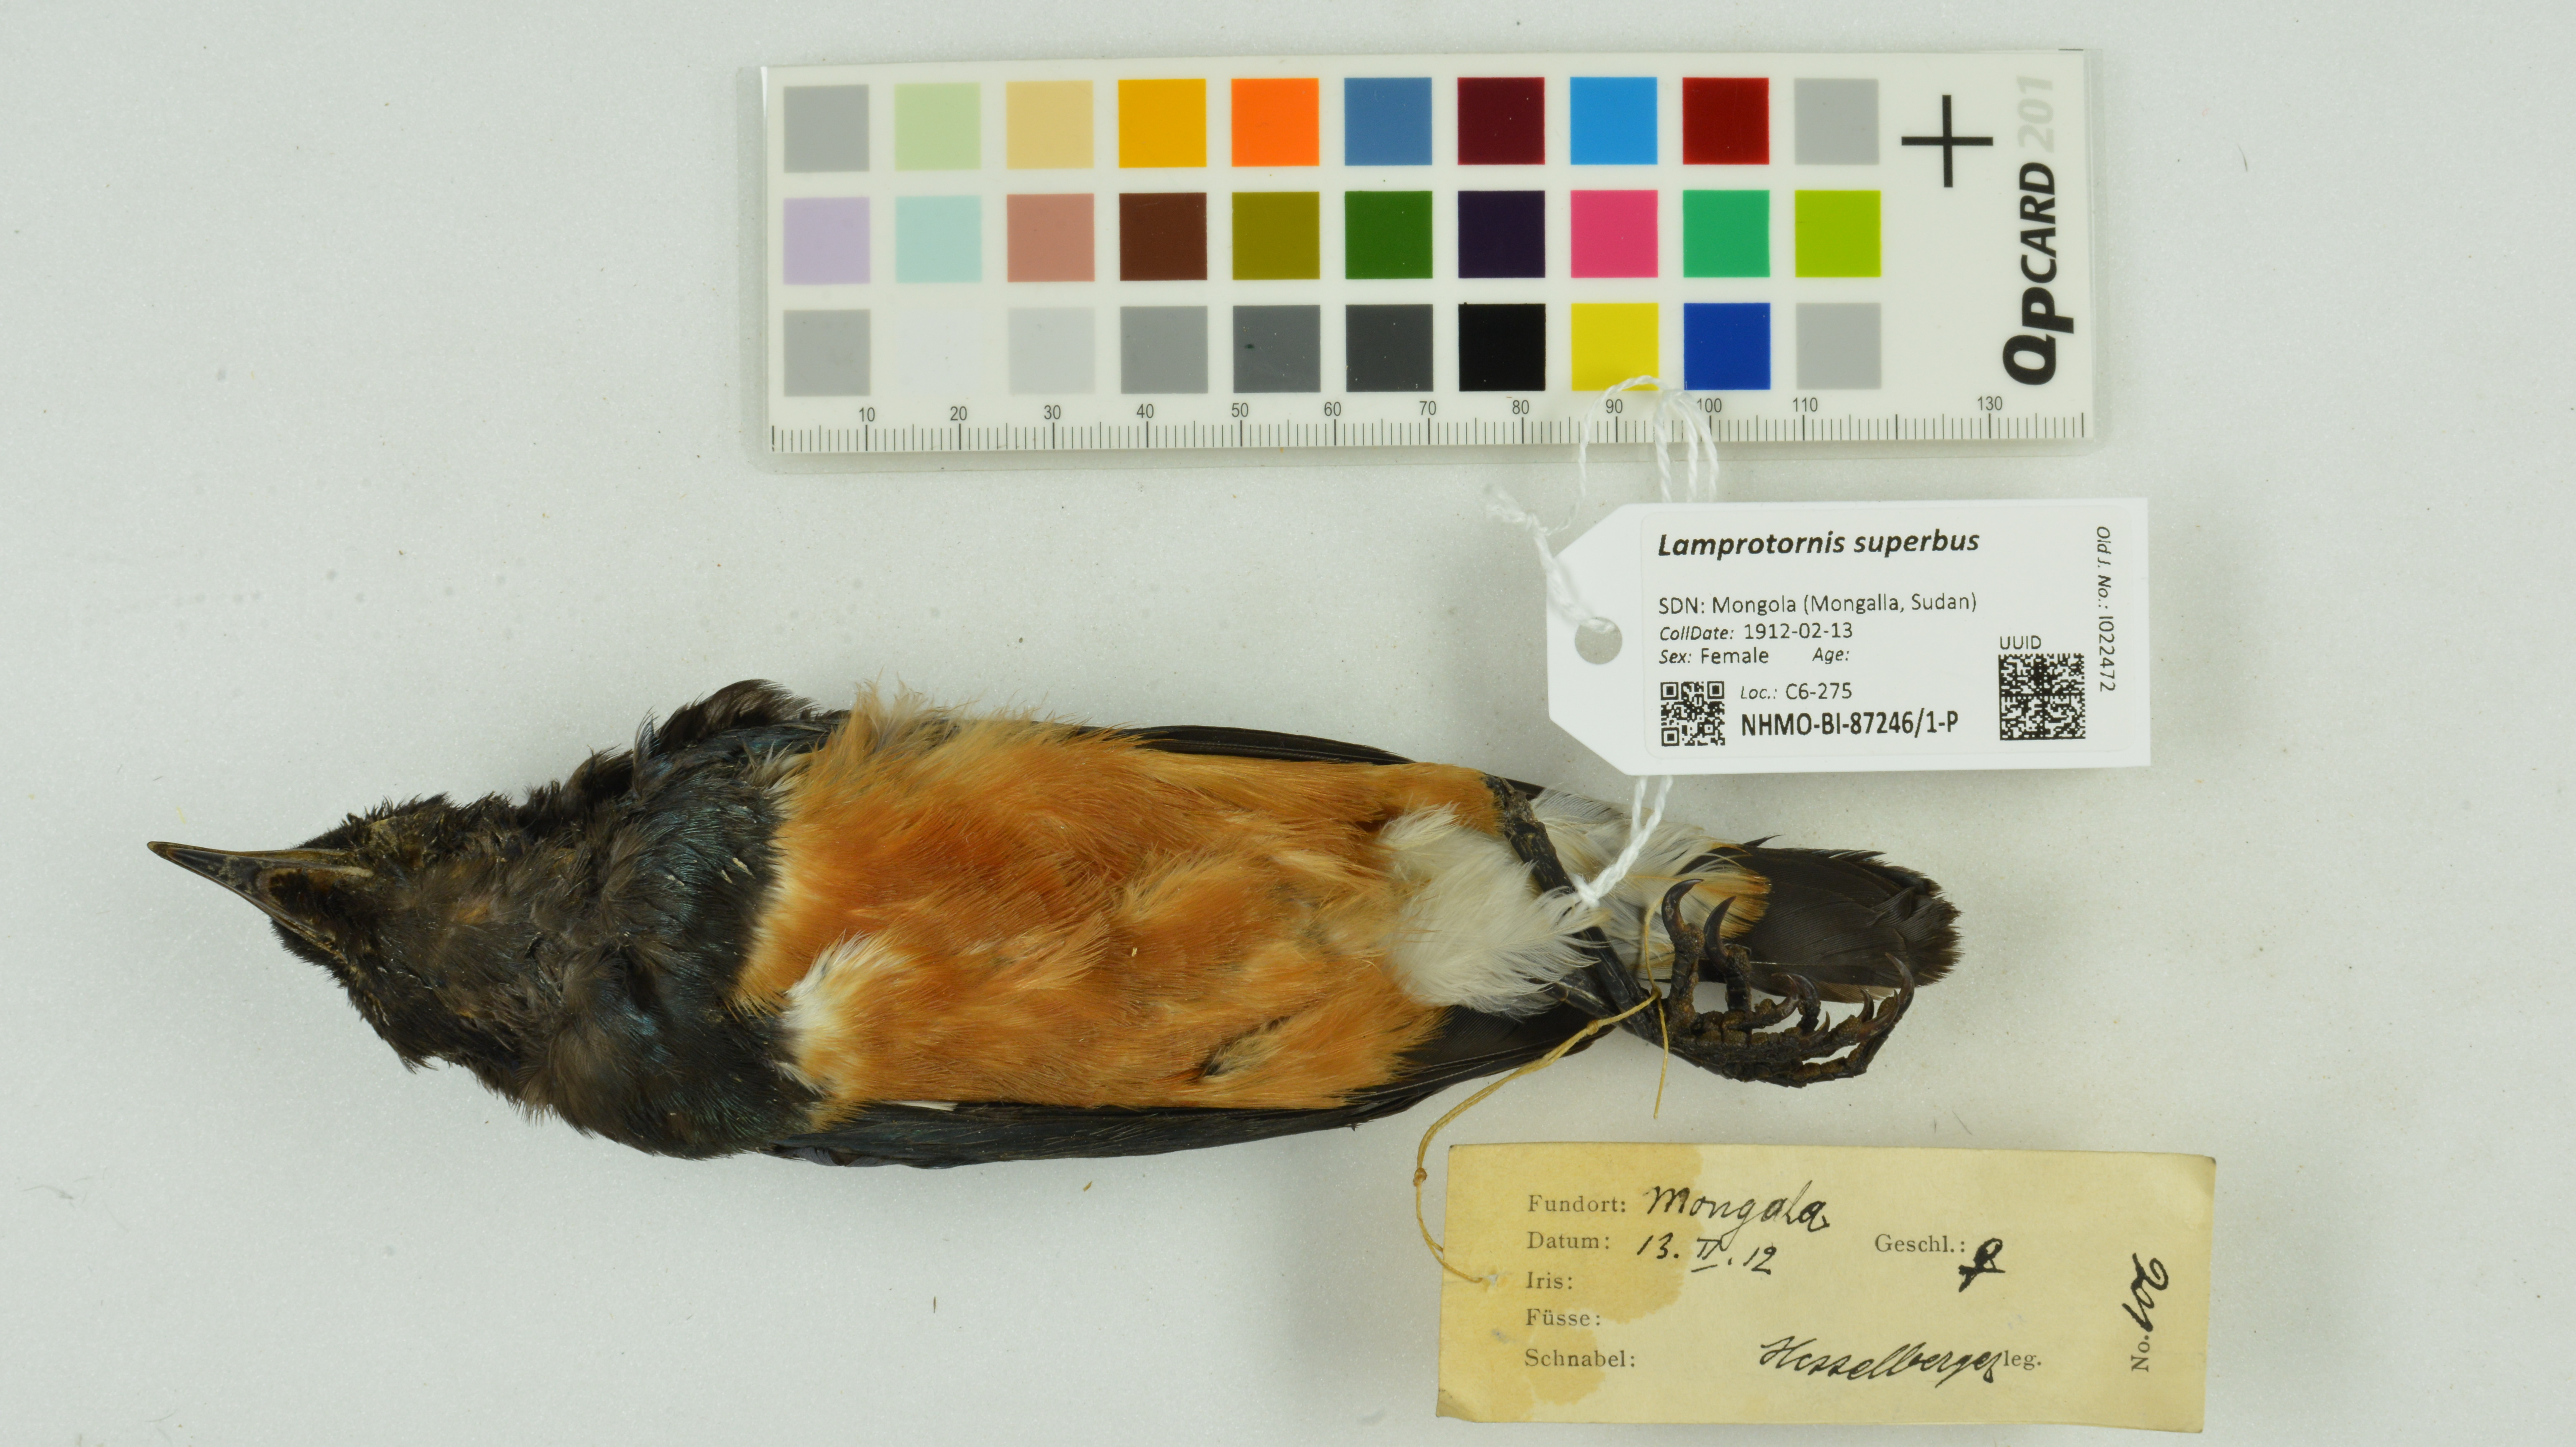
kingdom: Animalia
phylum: Chordata
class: Aves
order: Passeriformes
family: Sturnidae
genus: Lamprotornis
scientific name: Lamprotornis superbus
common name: Superb starling
